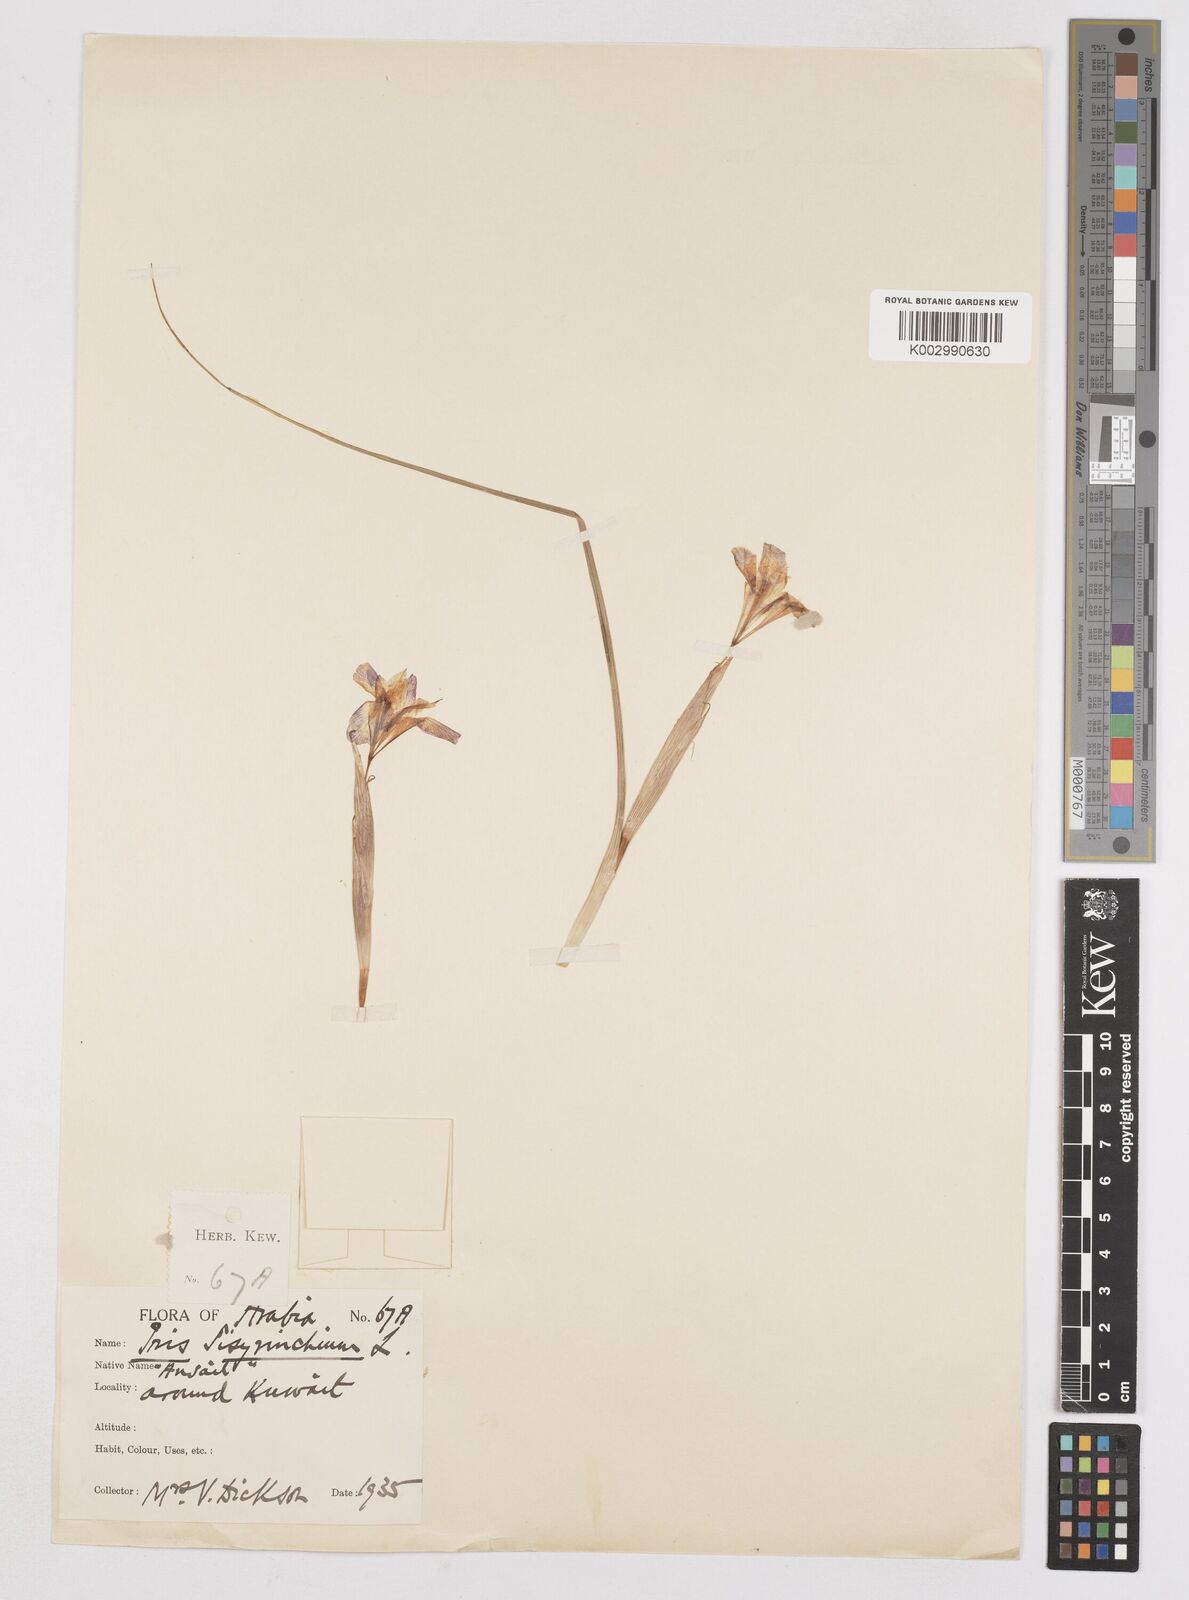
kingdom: Plantae
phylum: Tracheophyta
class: Liliopsida
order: Asparagales
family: Iridaceae
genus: Moraea
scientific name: Moraea sisyrinchium
